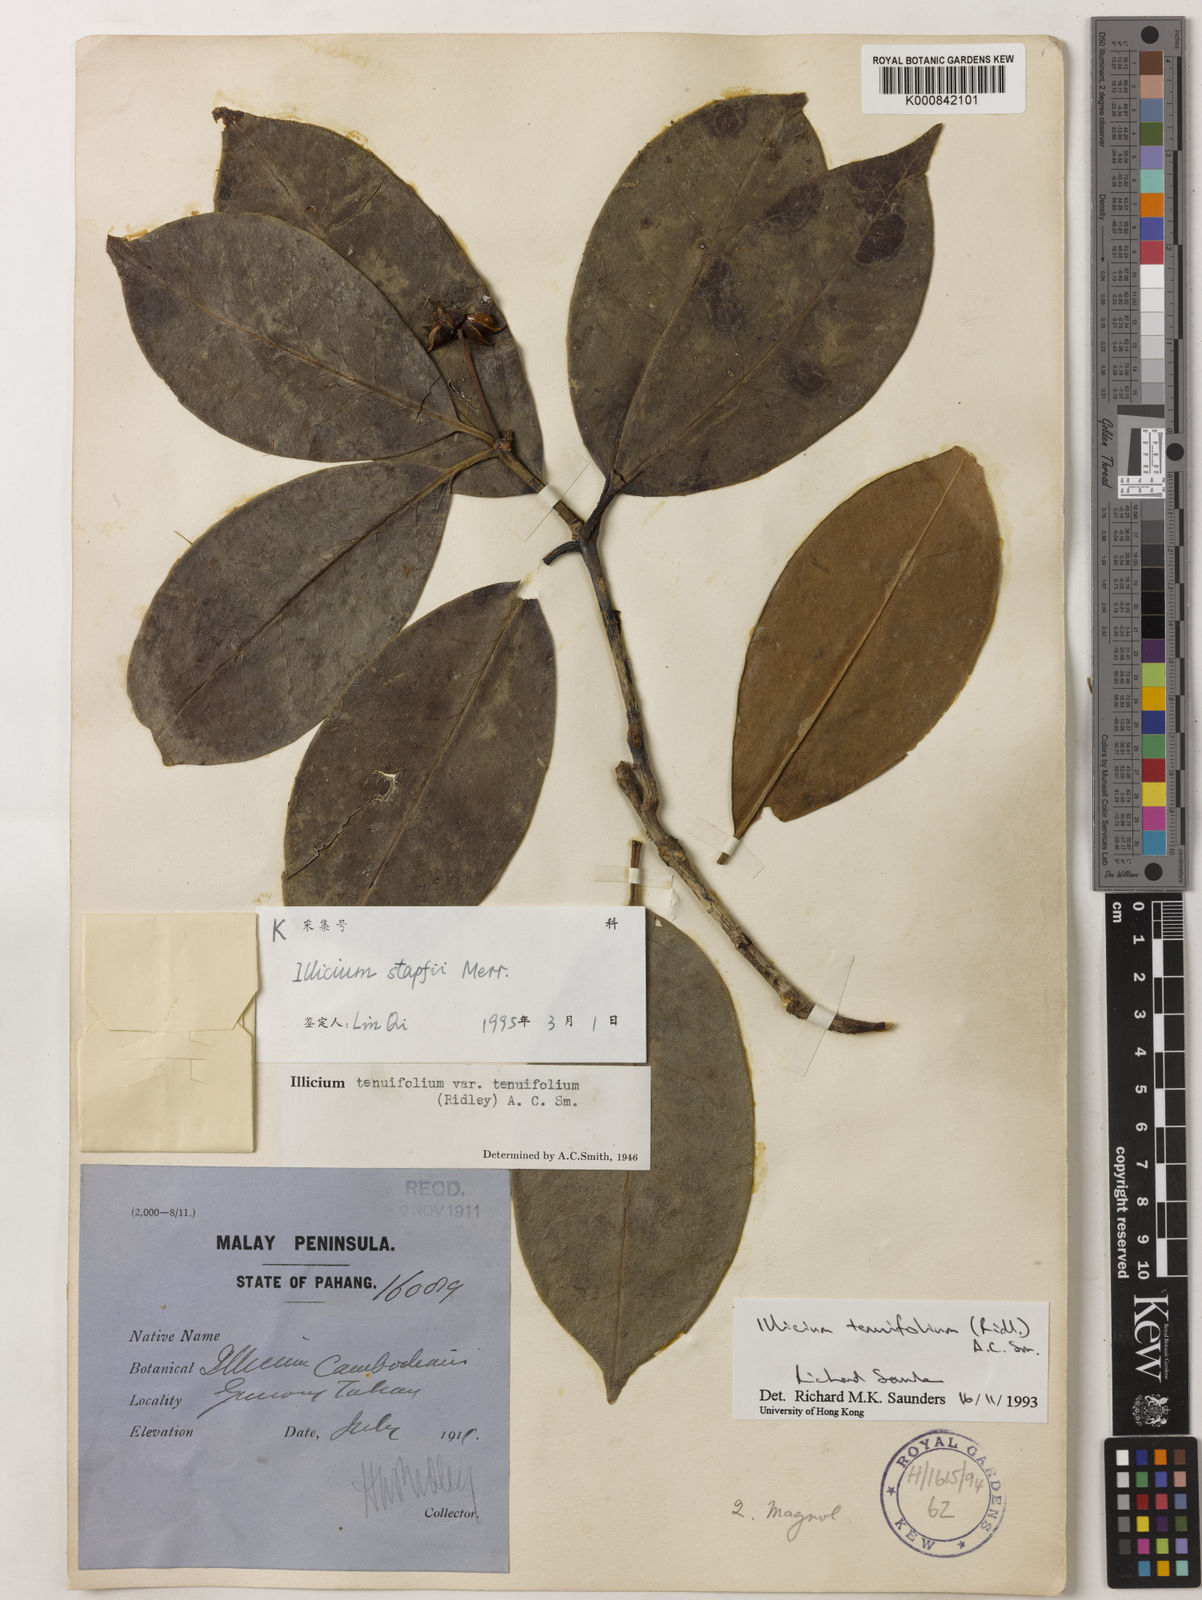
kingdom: Plantae
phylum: Tracheophyta
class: Magnoliopsida
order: Austrobaileyales
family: Schisandraceae
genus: Illicium
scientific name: Illicium stapfii
